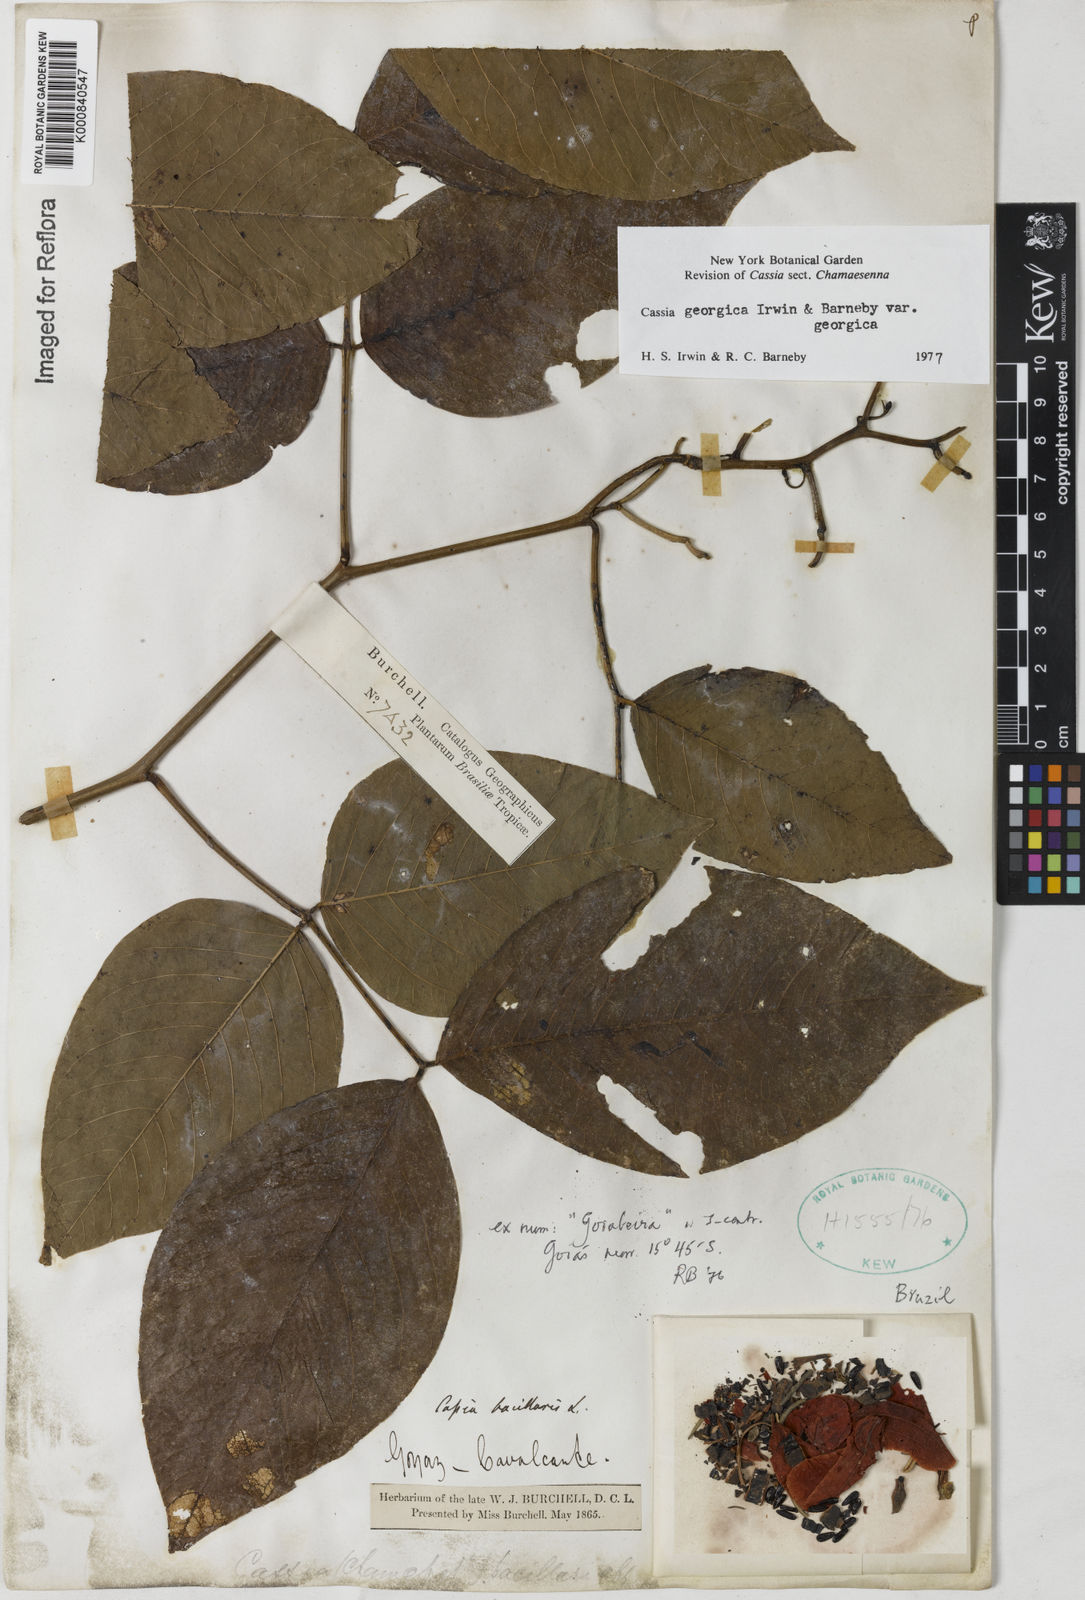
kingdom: Plantae
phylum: Tracheophyta
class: Magnoliopsida
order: Fabales
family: Fabaceae
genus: Senna
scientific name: Senna georgica
